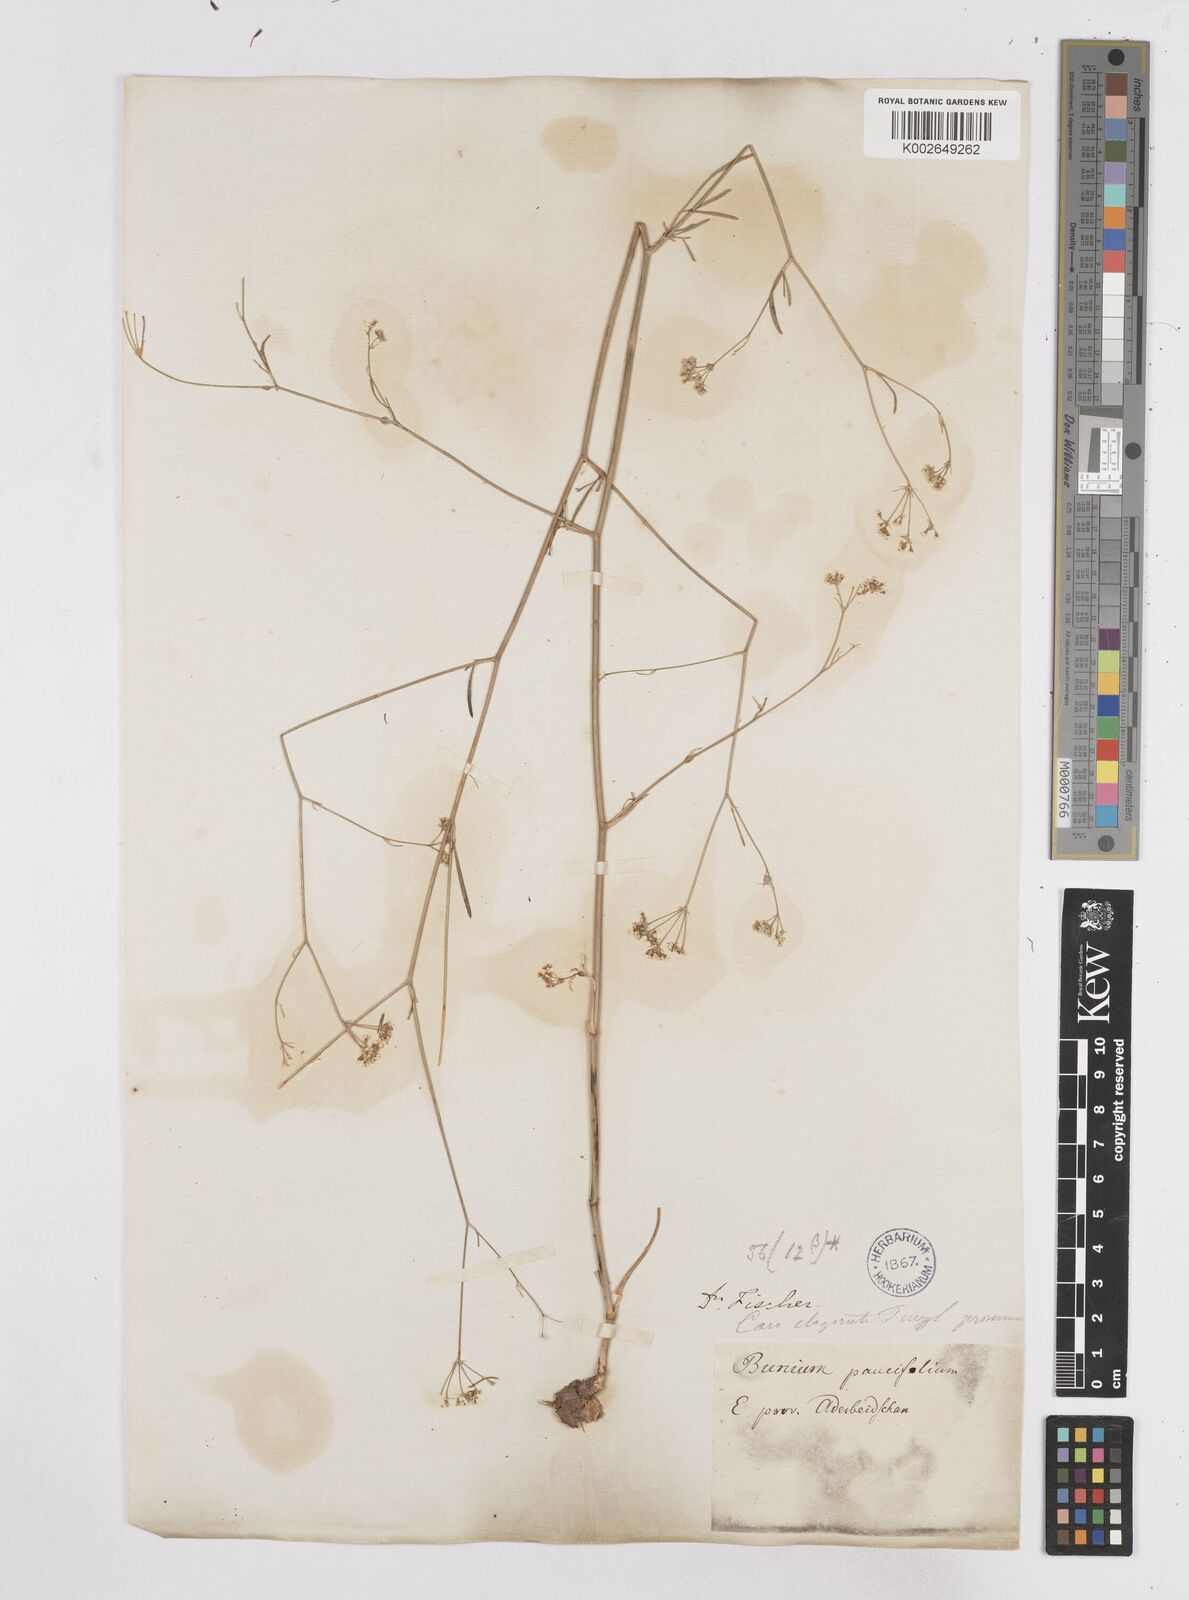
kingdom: Plantae
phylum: Tracheophyta
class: Magnoliopsida
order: Apiales
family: Apiaceae
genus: Bunium
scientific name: Bunium
